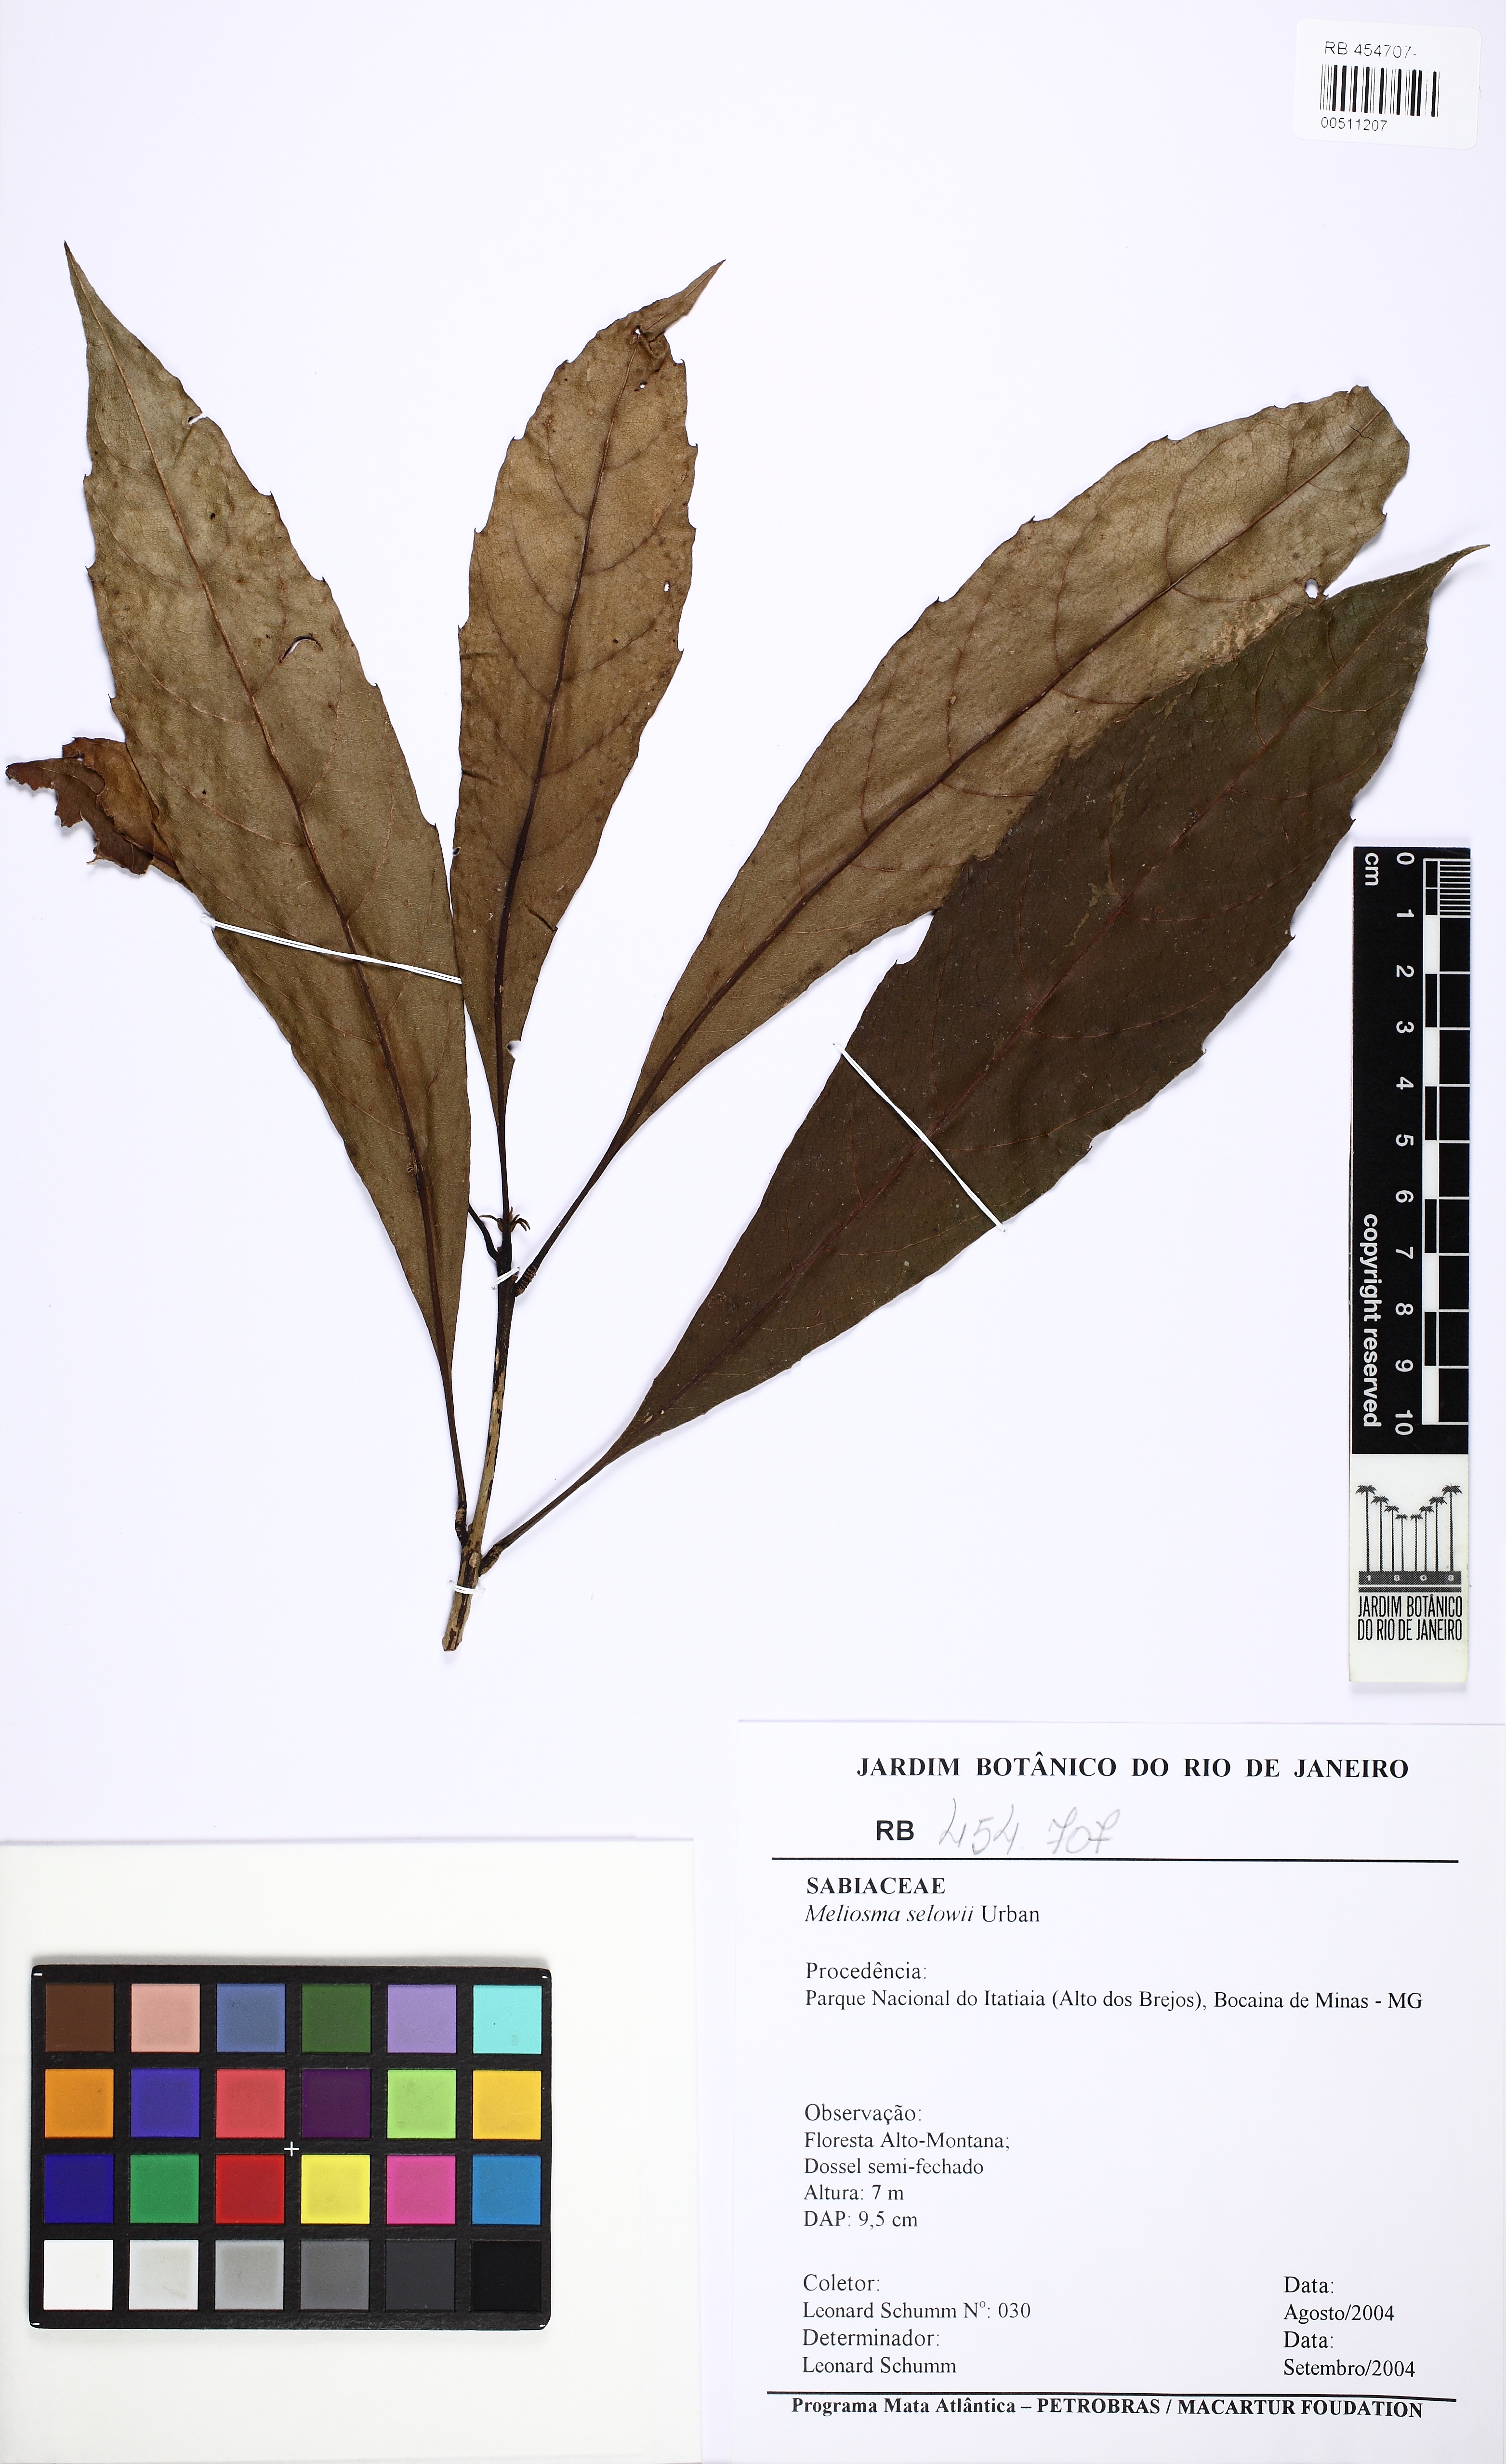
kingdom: Plantae
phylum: Tracheophyta
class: Magnoliopsida
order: Proteales
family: Sabiaceae
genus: Meliosma
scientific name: Meliosma sellowii
